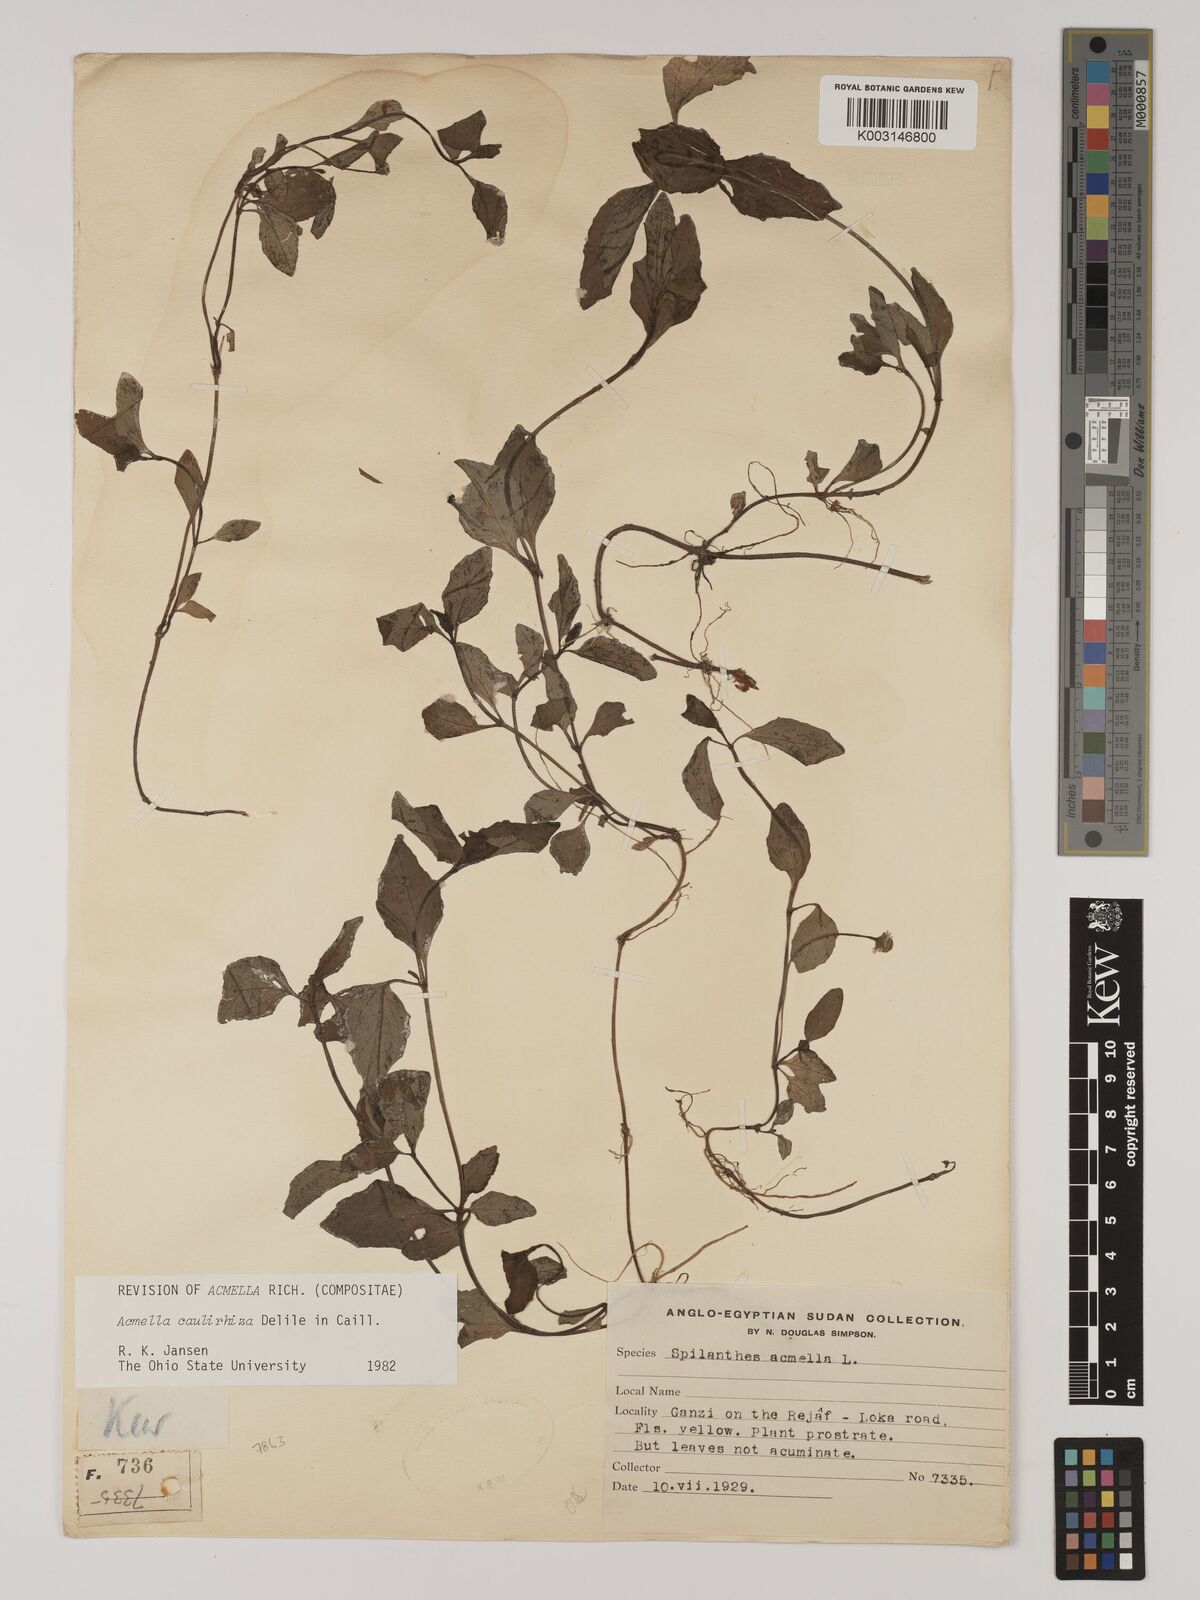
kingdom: Plantae
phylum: Tracheophyta
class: Magnoliopsida
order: Asterales
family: Asteraceae
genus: Acmella
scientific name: Acmella caulirhiza
